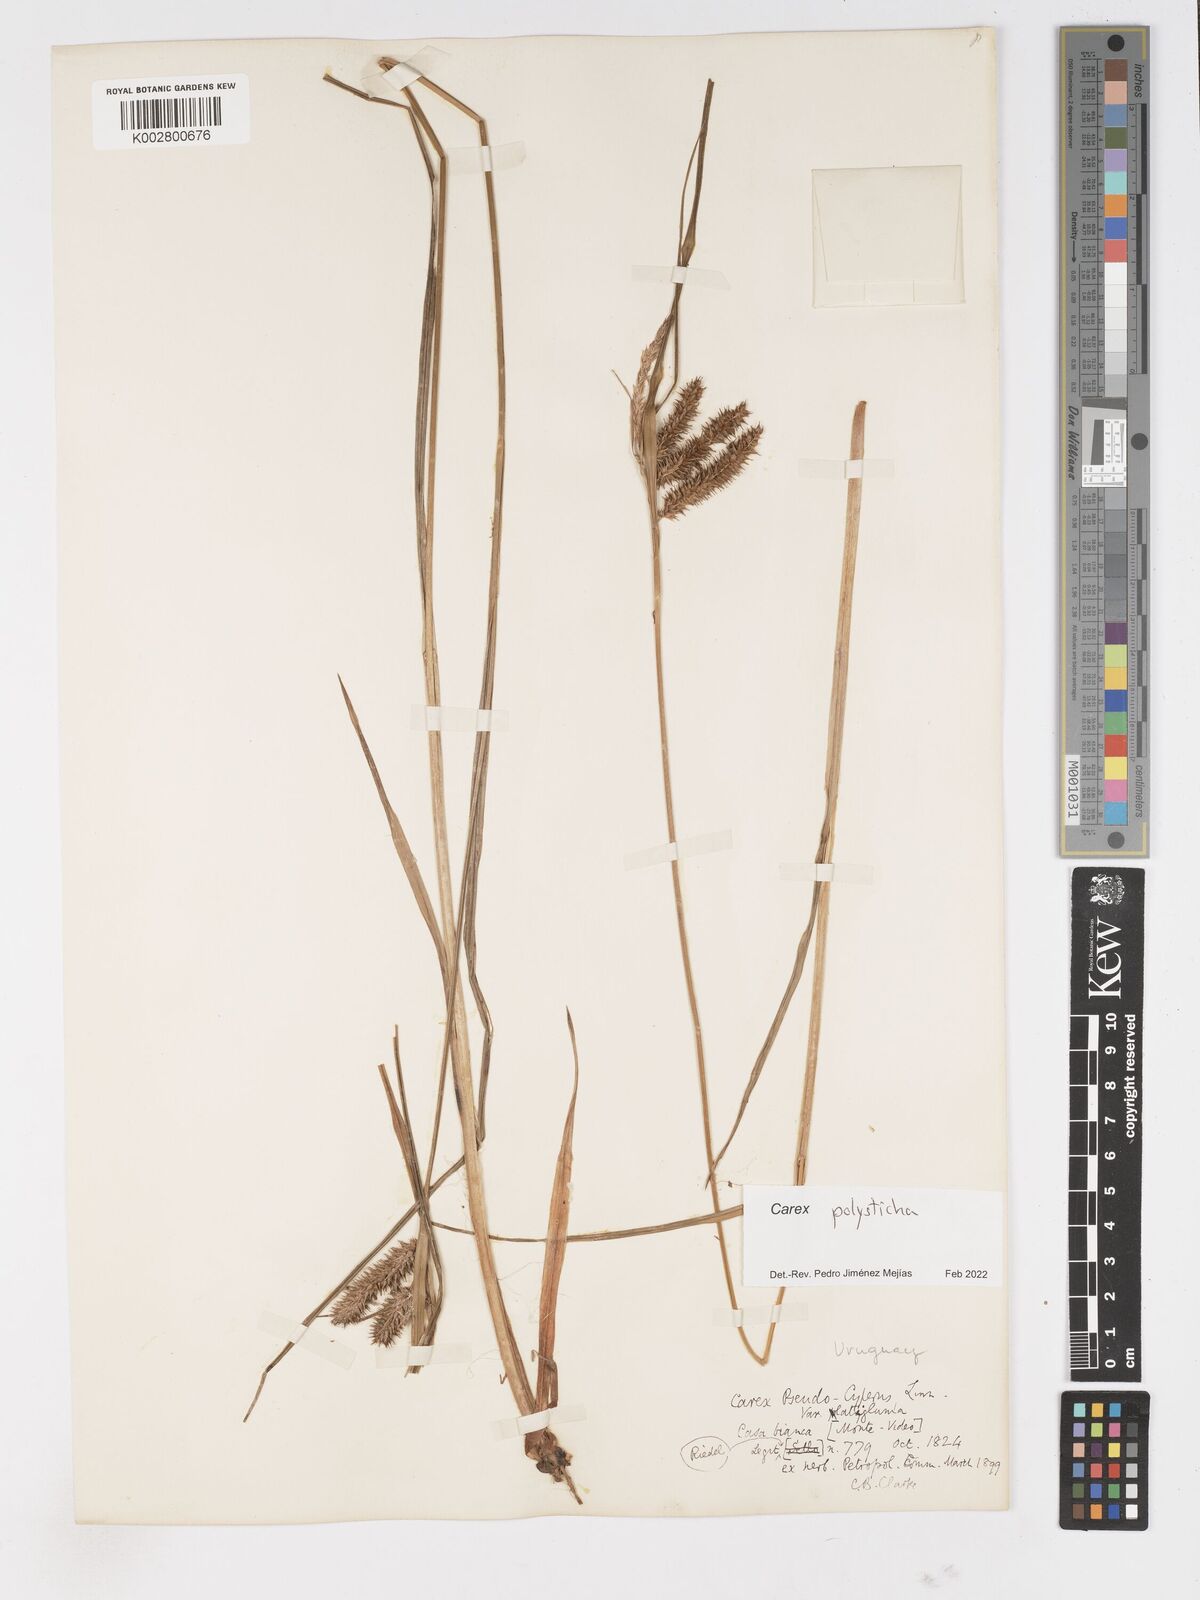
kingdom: Plantae
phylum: Tracheophyta
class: Liliopsida
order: Poales
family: Cyperaceae
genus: Carex
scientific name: Carex excelsa
